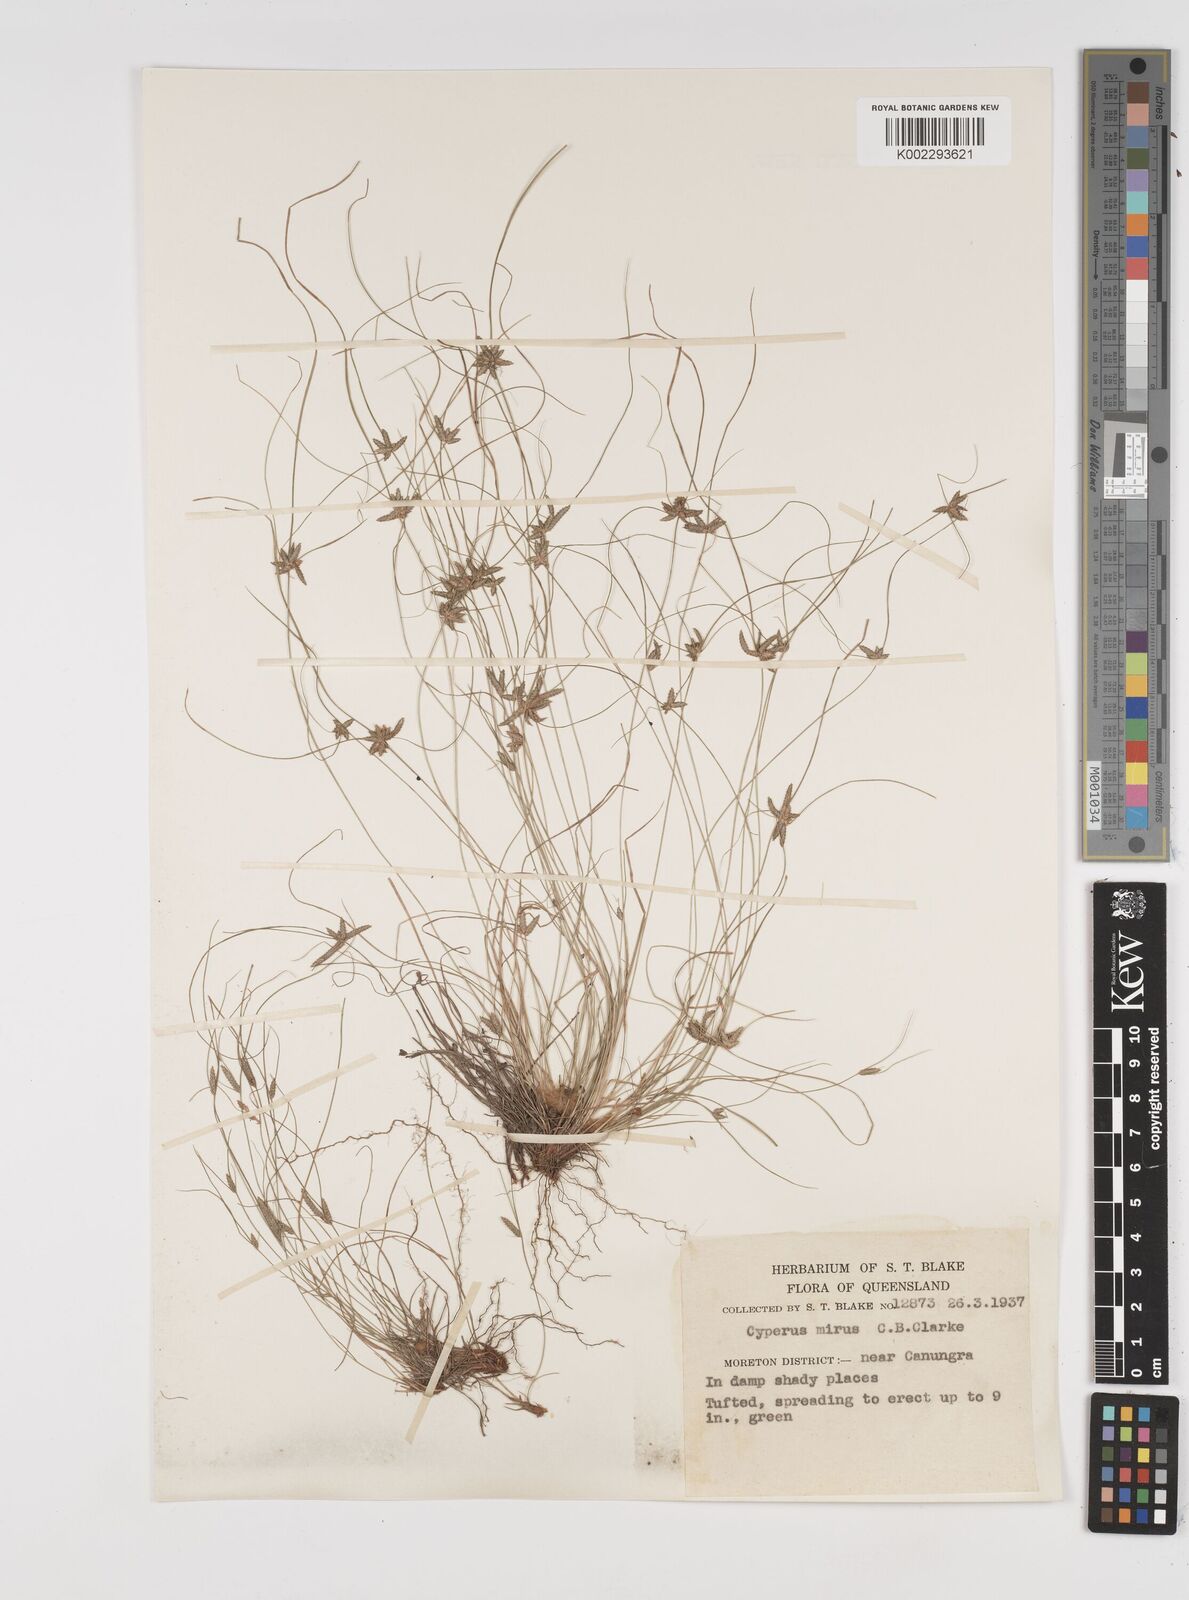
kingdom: Plantae
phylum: Tracheophyta
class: Liliopsida
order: Poales
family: Cyperaceae
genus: Cyperus
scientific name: Cyperus mirus
